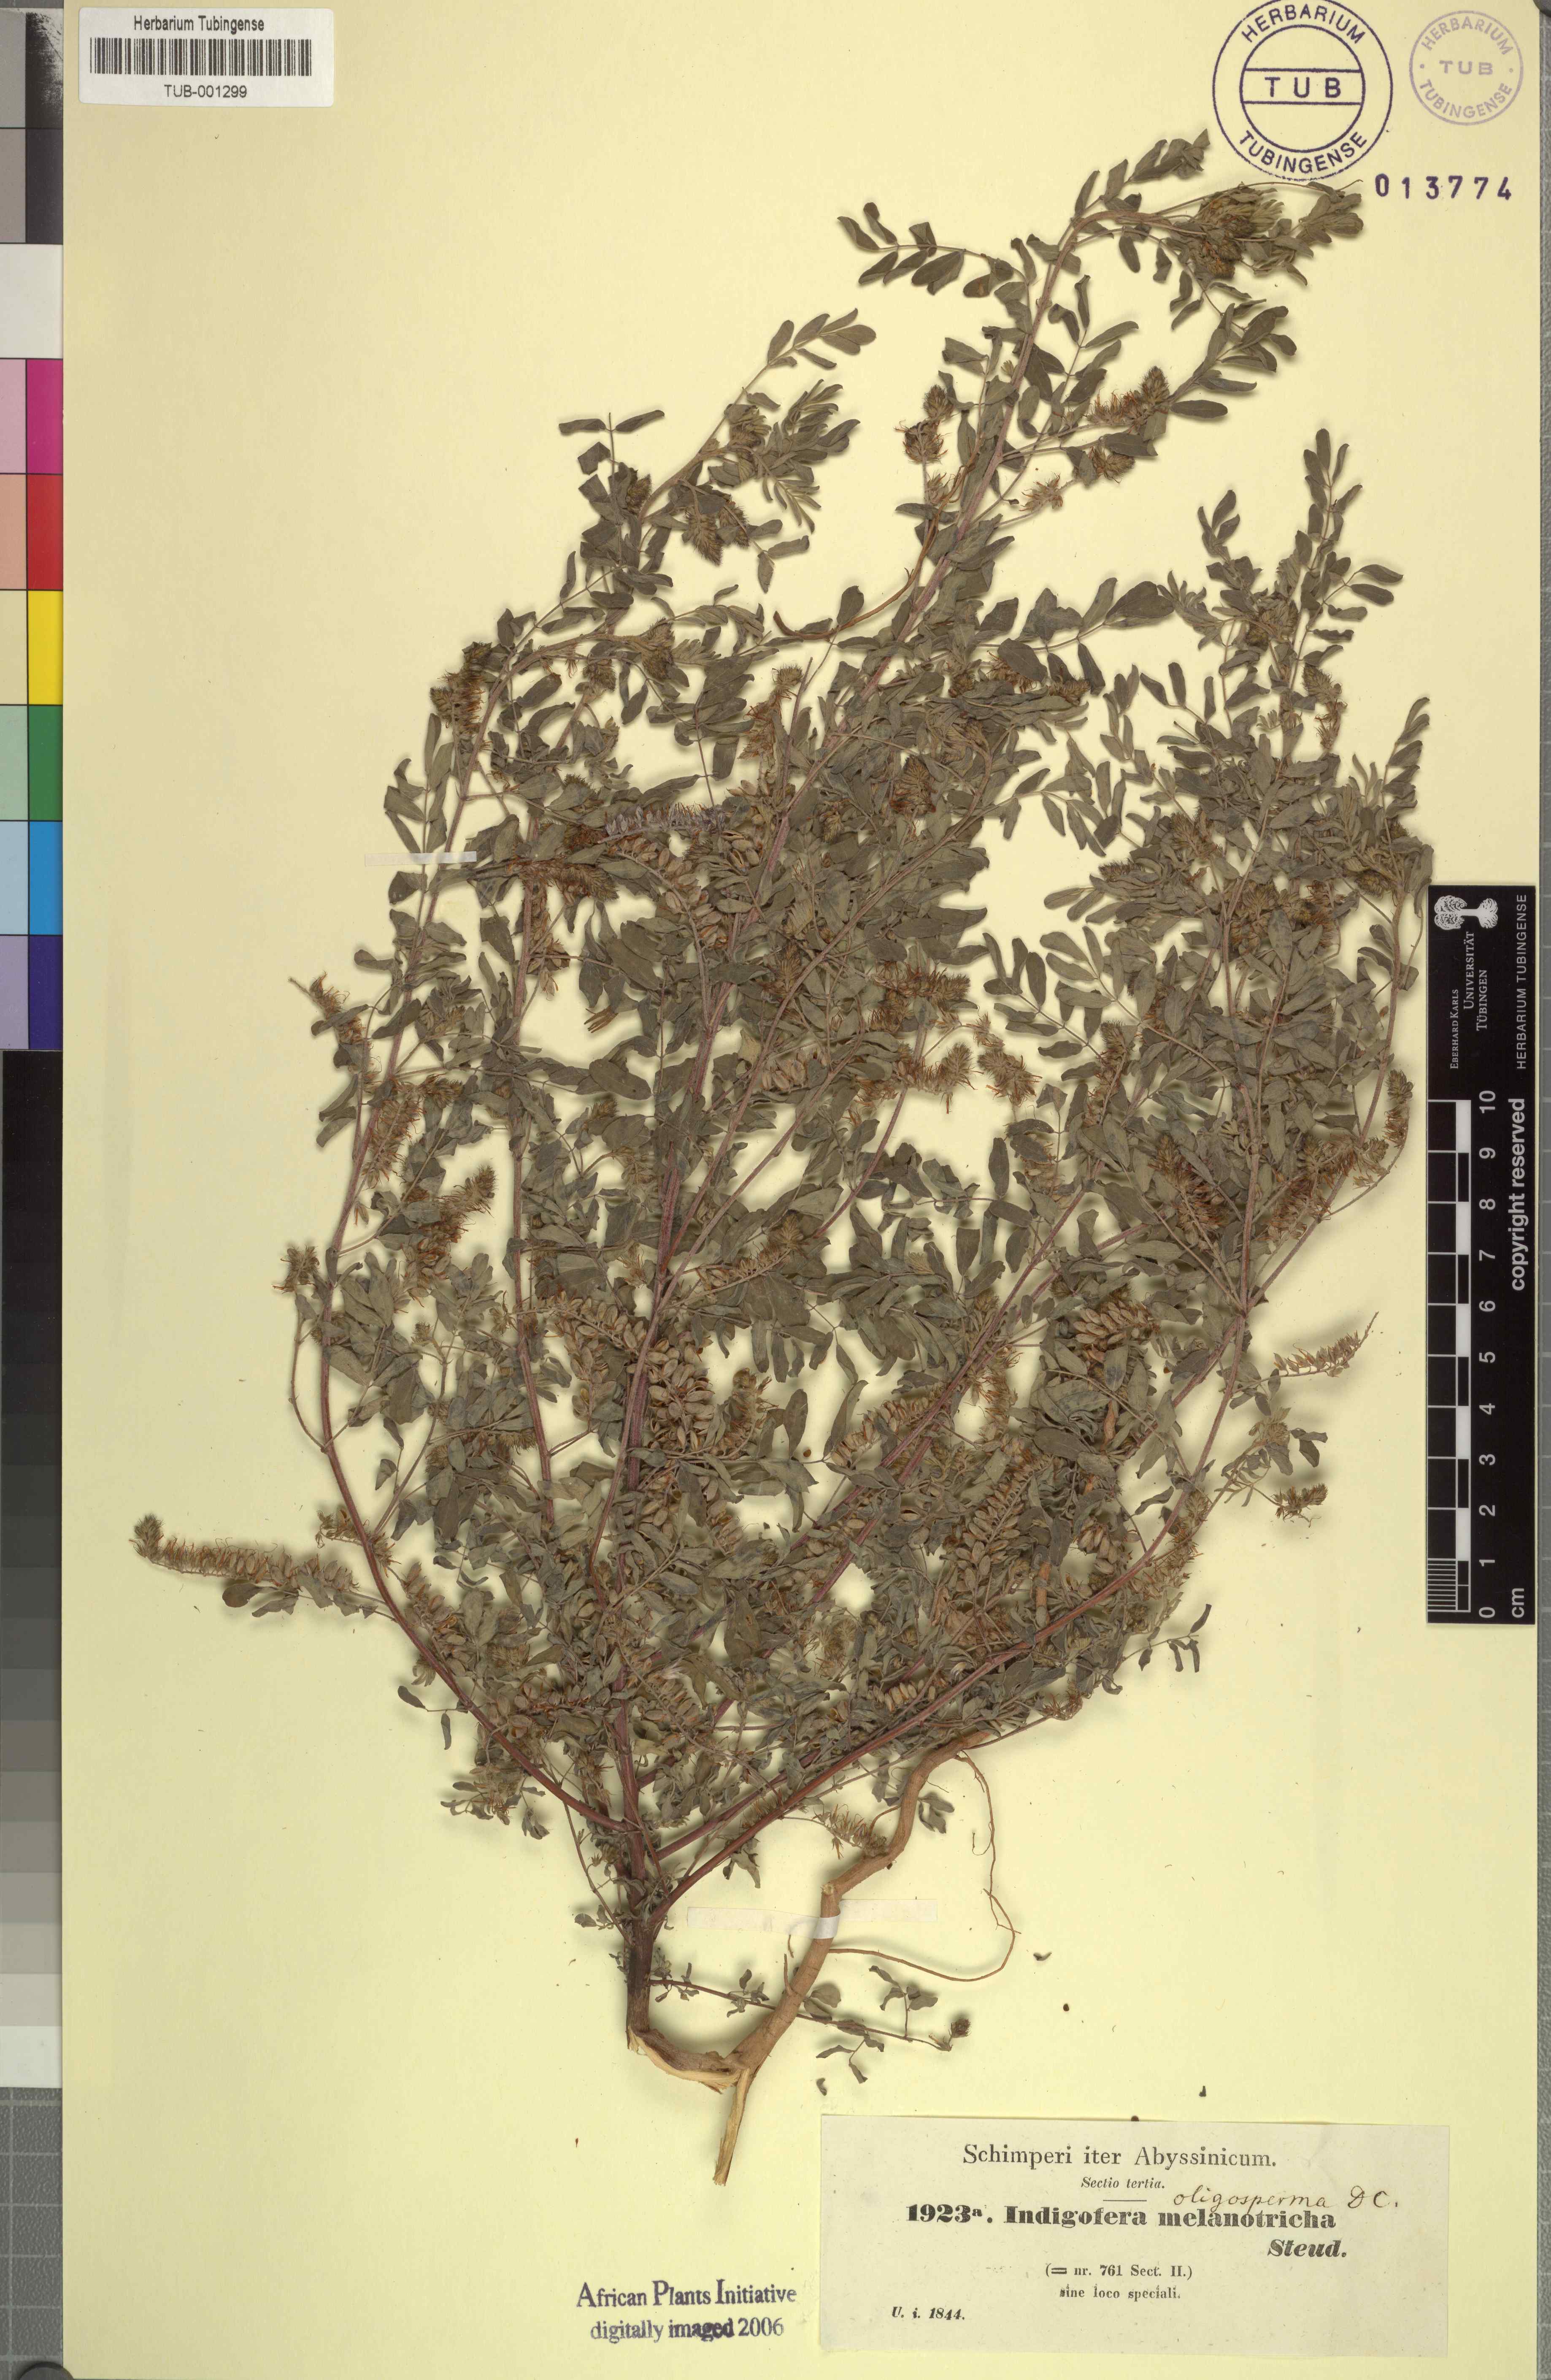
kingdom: Plantae
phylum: Tracheophyta
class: Magnoliopsida
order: Fabales
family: Fabaceae
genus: Indigofera
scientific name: Indigofera secundiflora
